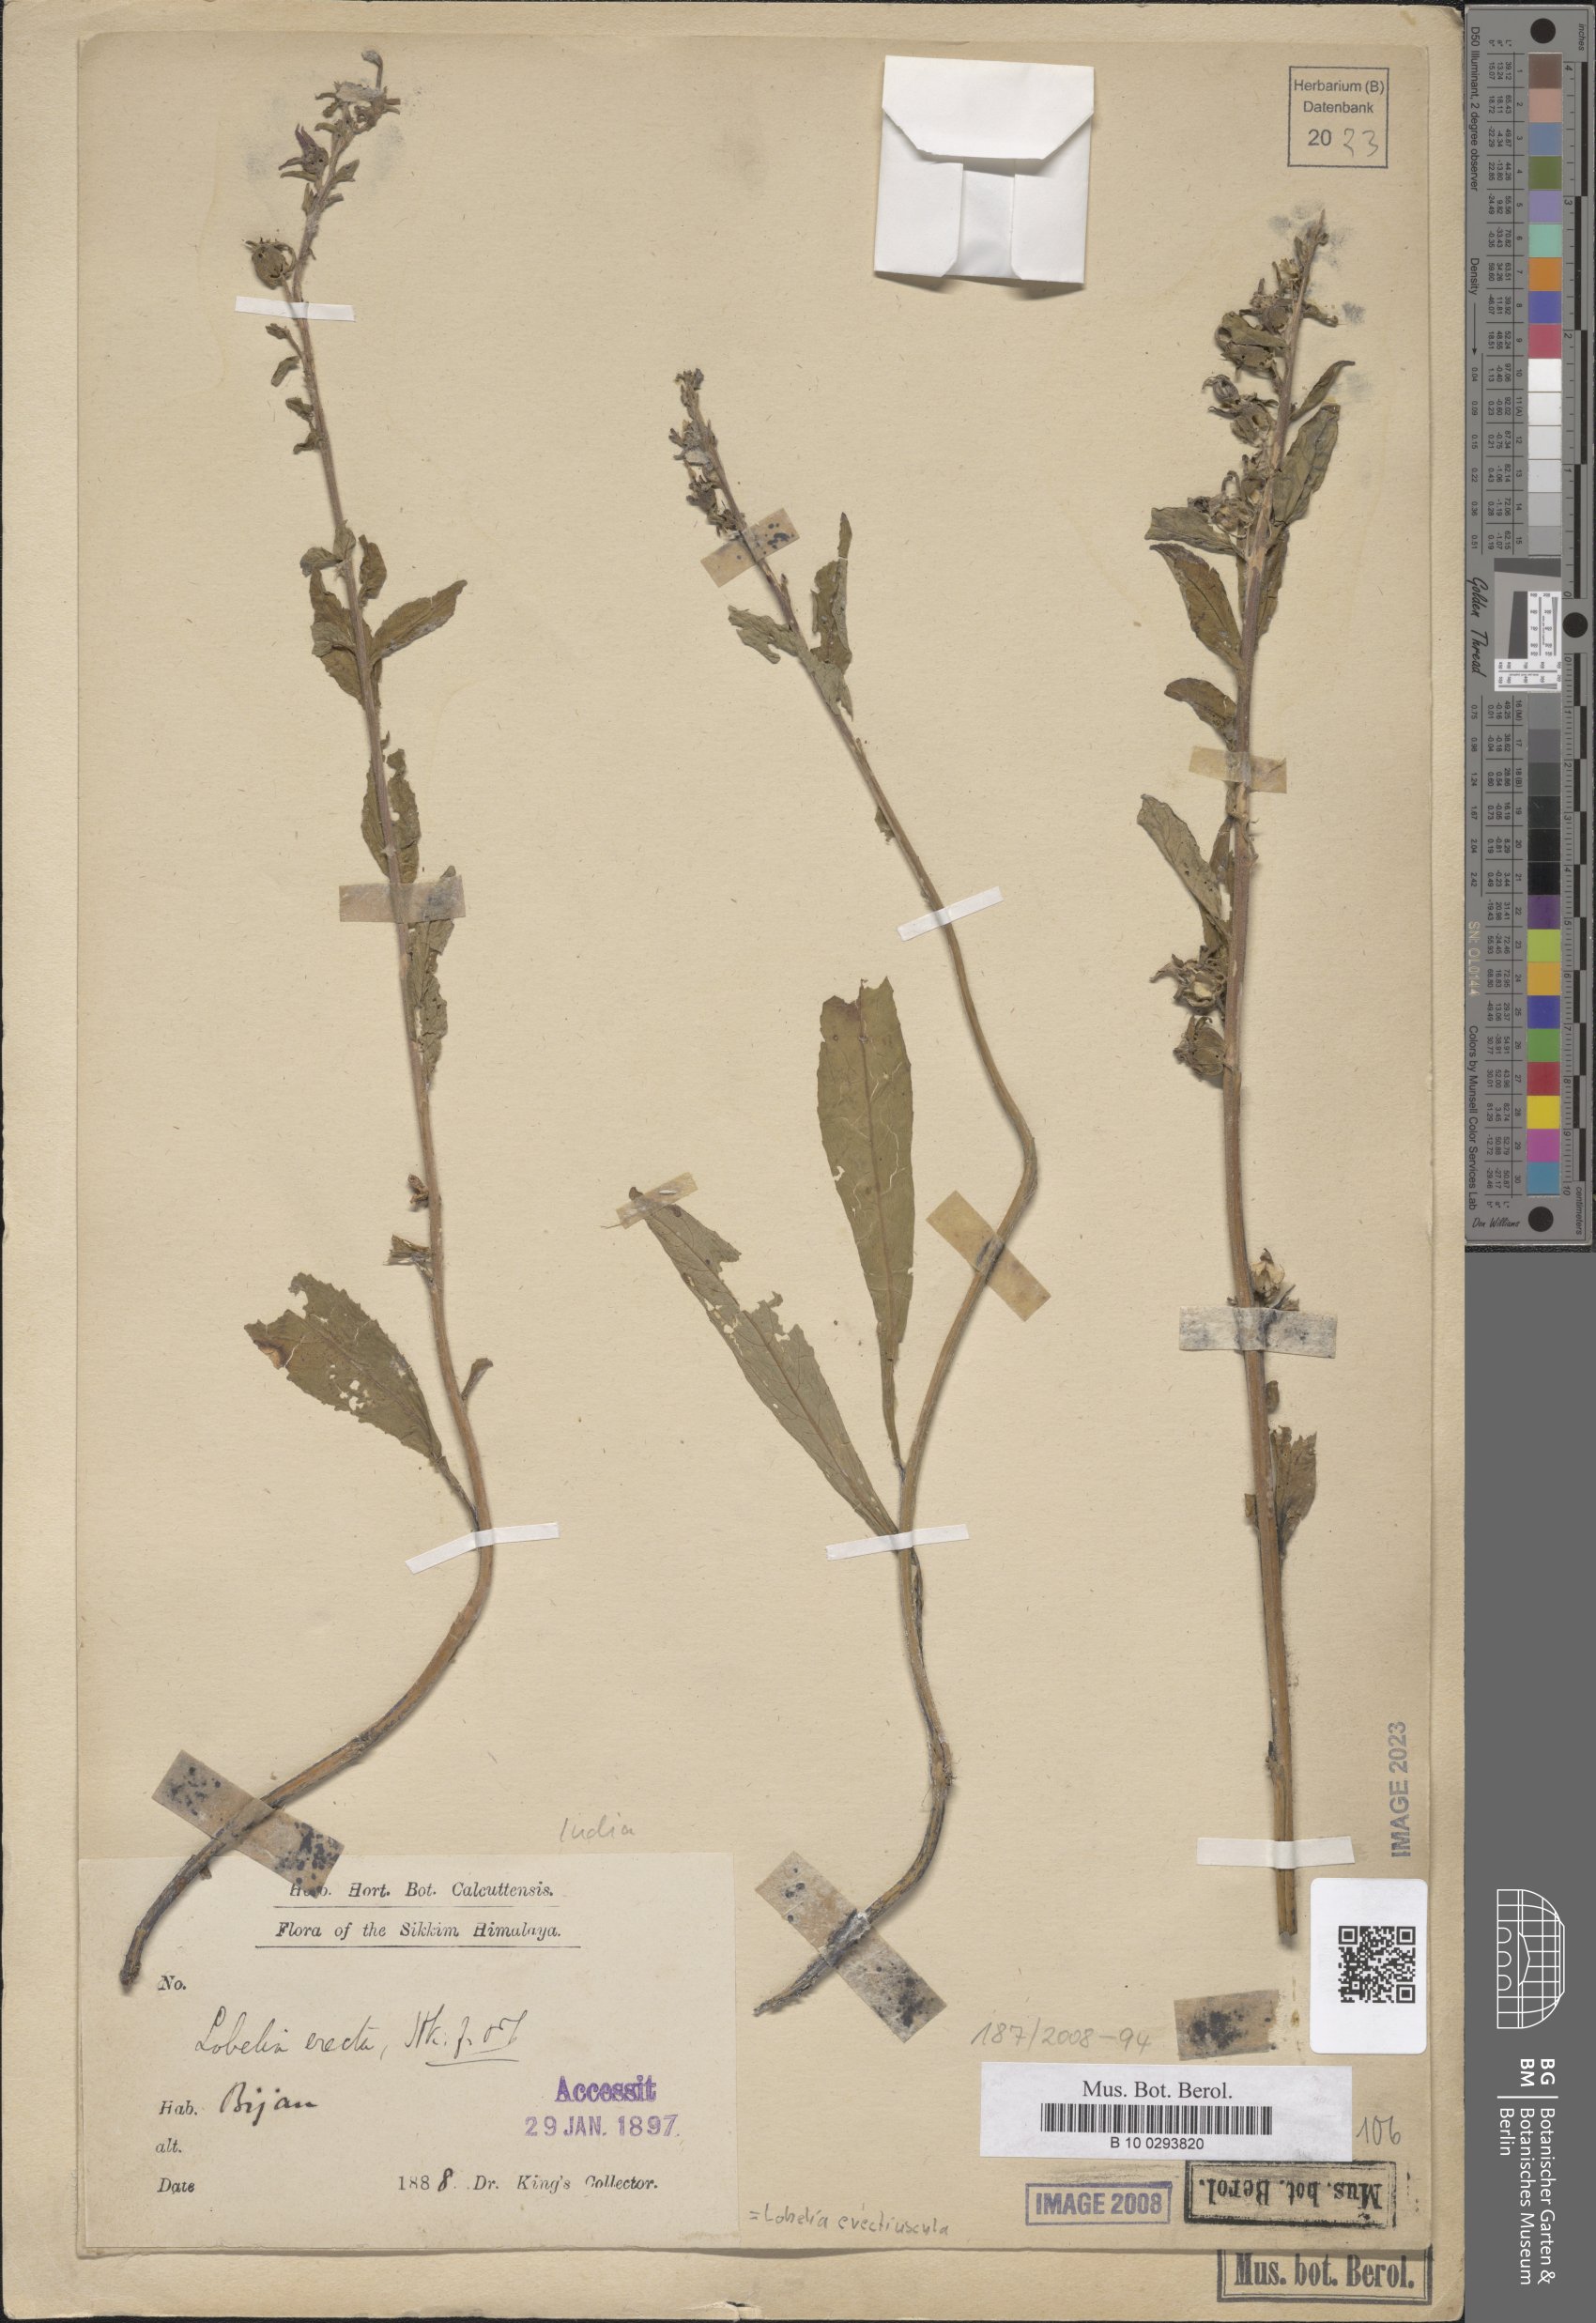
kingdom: Plantae
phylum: Tracheophyta
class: Magnoliopsida
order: Asterales
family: Campanulaceae
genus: Lobelia
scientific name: Lobelia erectiuscula
